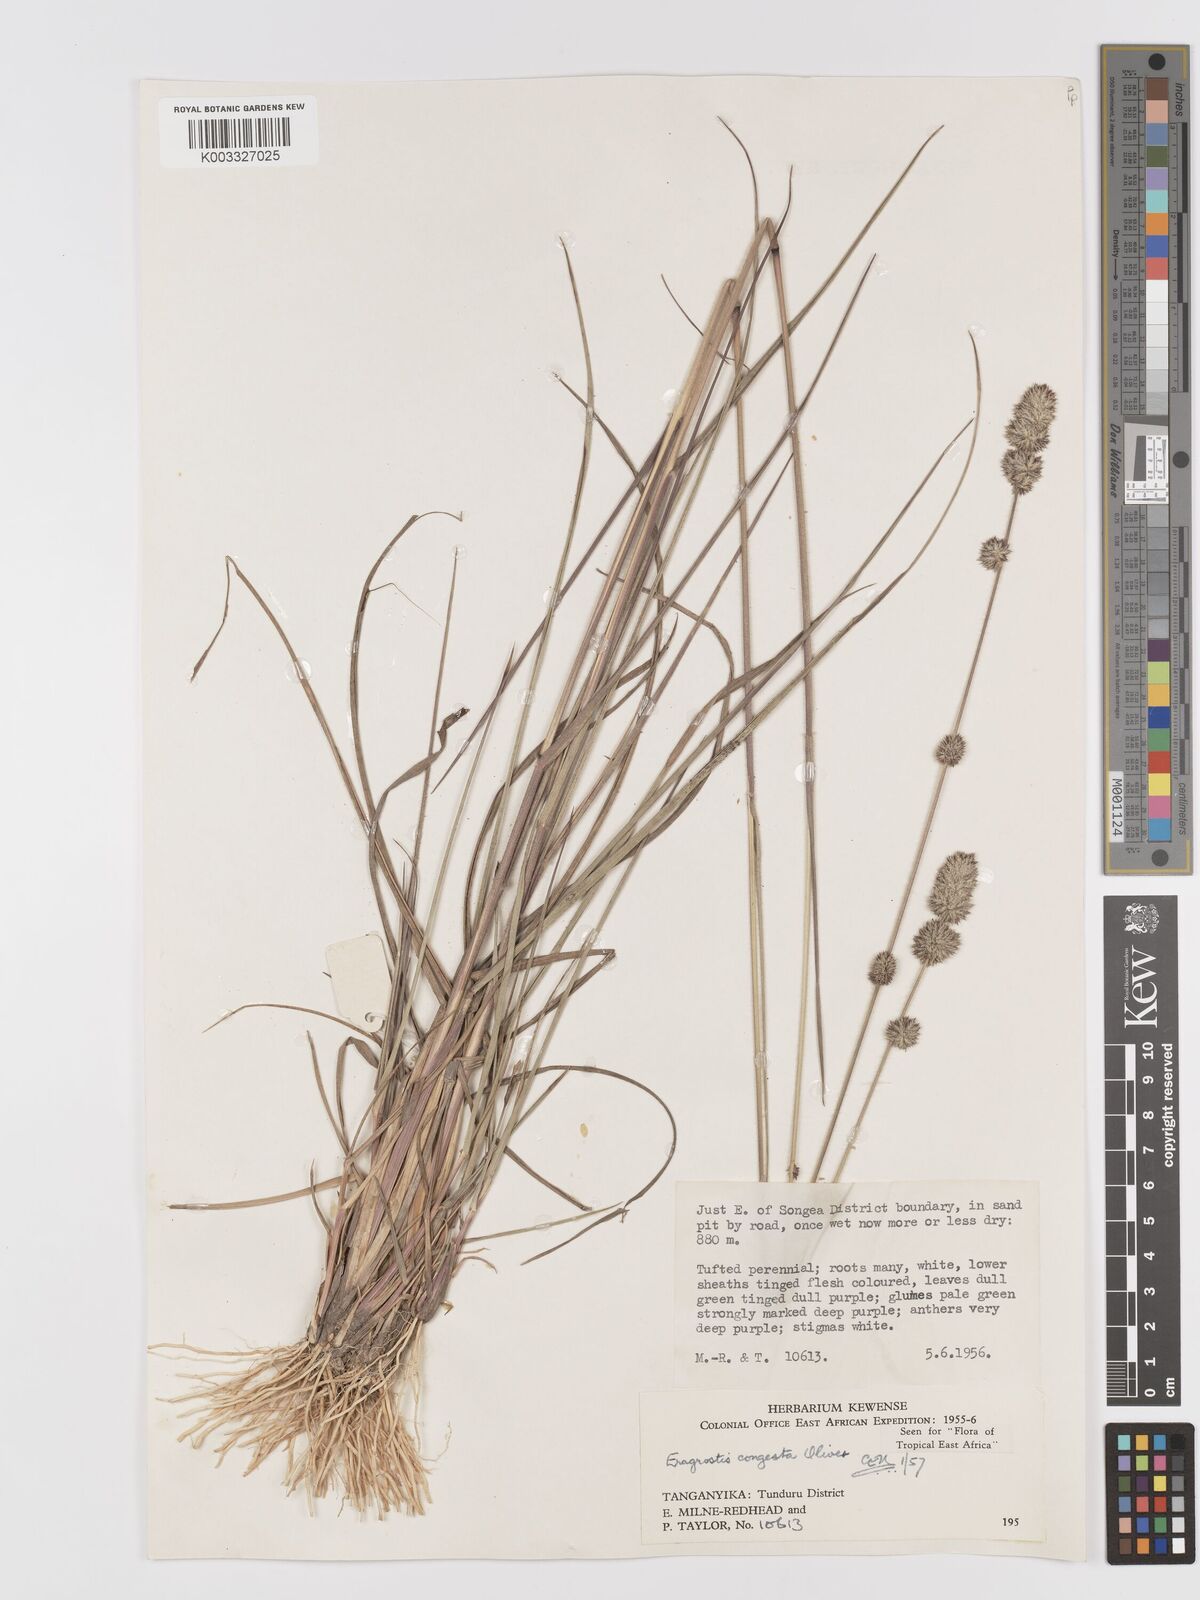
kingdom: Plantae
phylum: Tracheophyta
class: Liliopsida
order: Poales
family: Poaceae
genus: Eragrostis
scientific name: Eragrostis congesta
